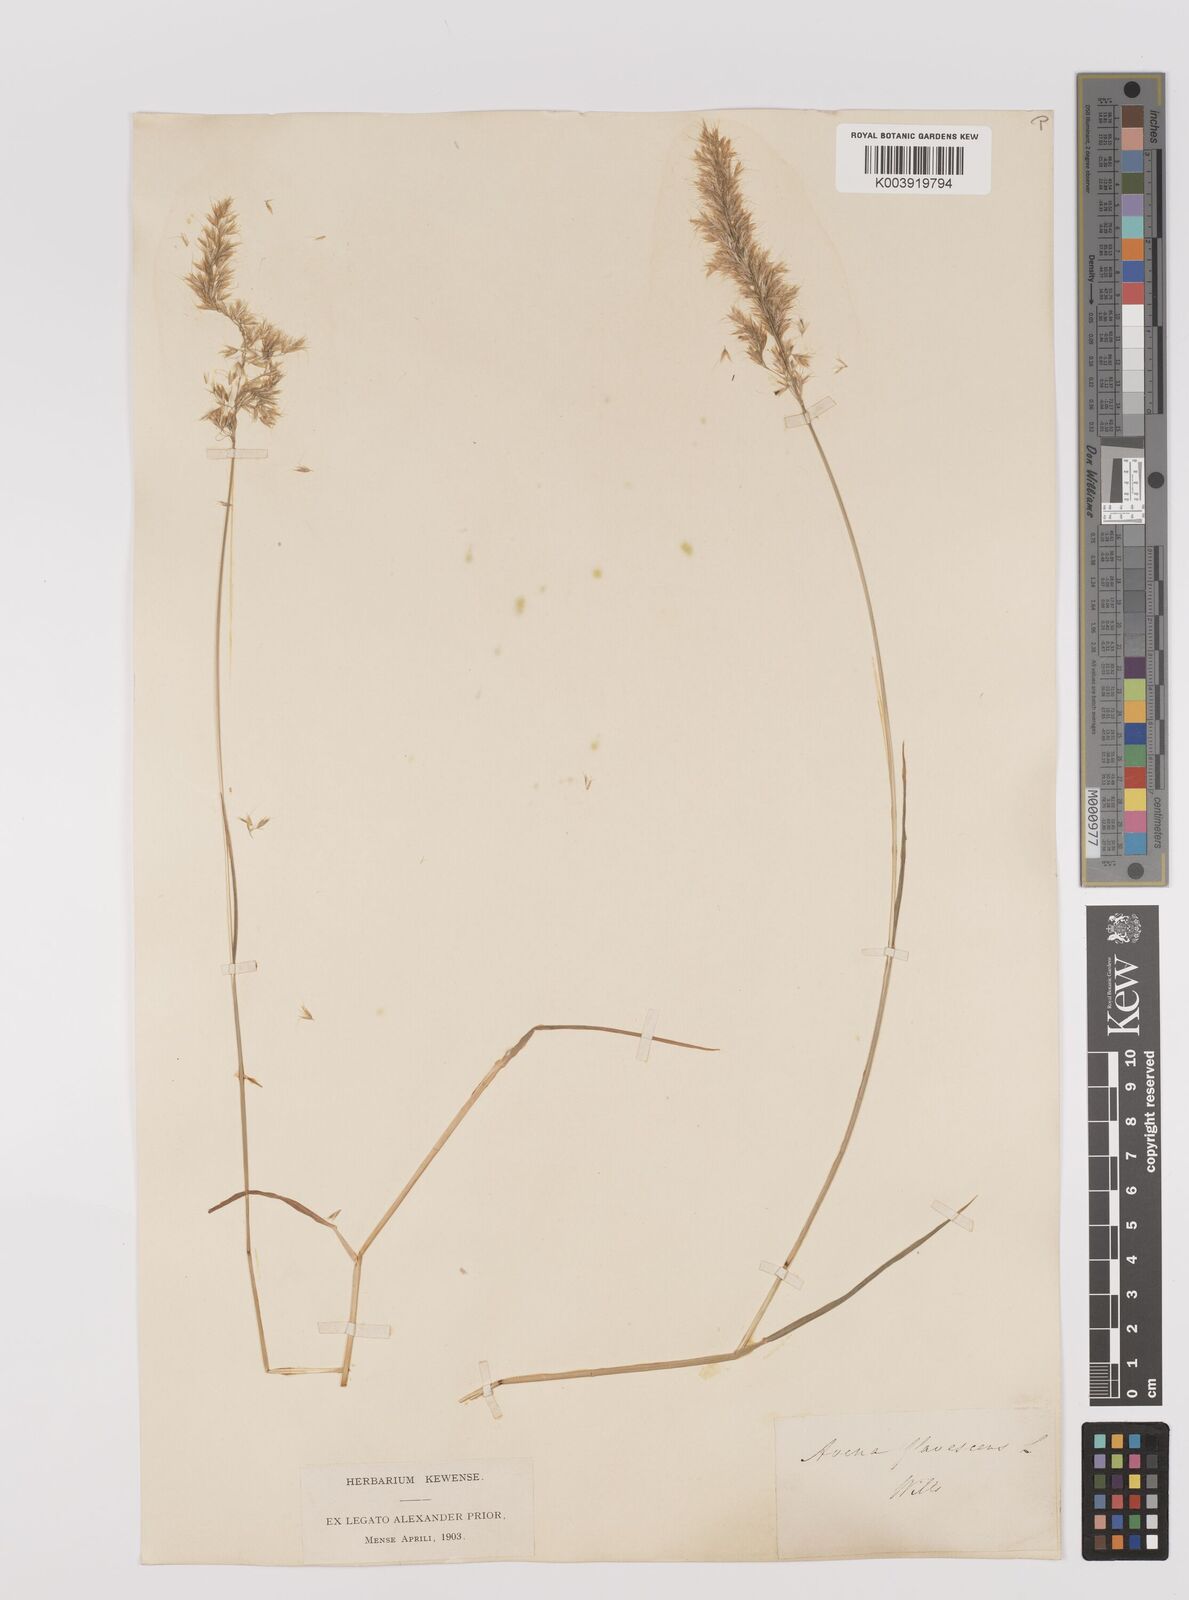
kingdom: Plantae
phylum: Tracheophyta
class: Liliopsida
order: Poales
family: Poaceae
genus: Trisetum
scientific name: Trisetum flavescens
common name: Yellow oat-grass
